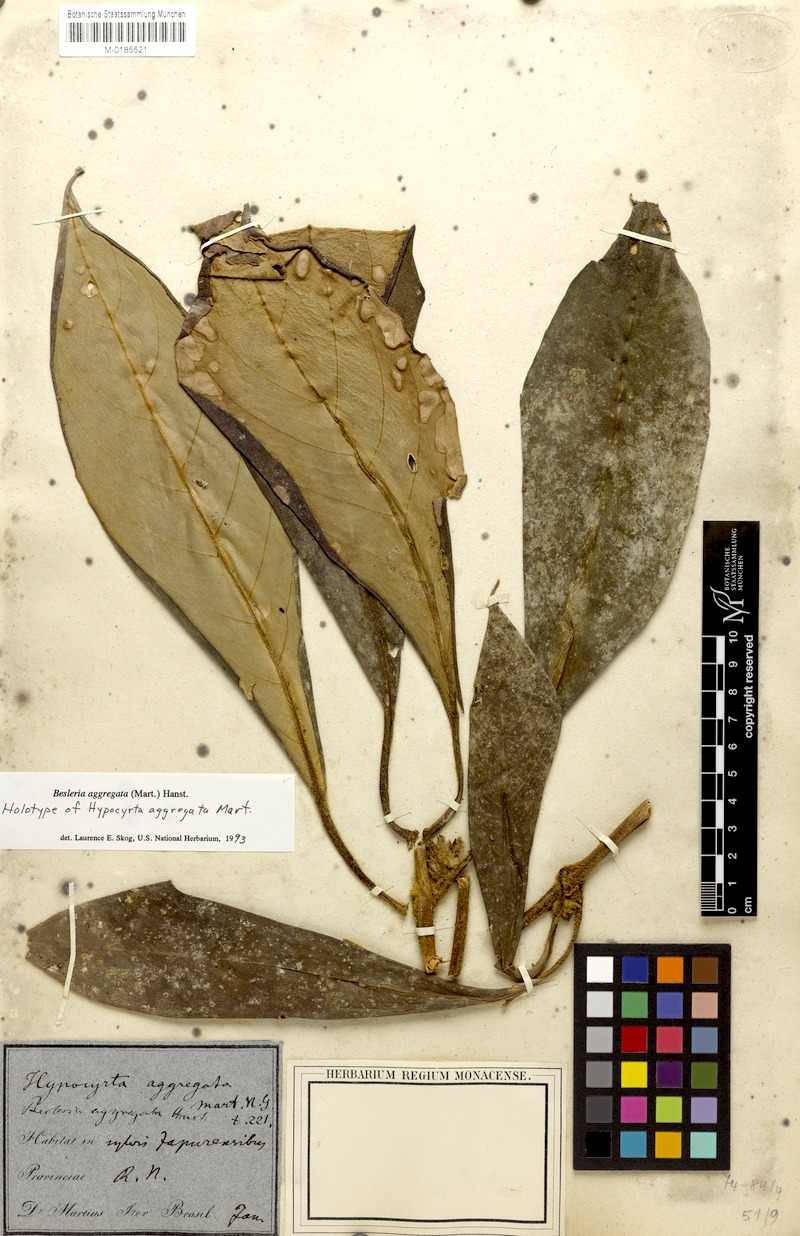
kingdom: Plantae
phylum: Tracheophyta
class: Magnoliopsida
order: Lamiales
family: Gesneriaceae
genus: Besleria
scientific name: Besleria aggregata
